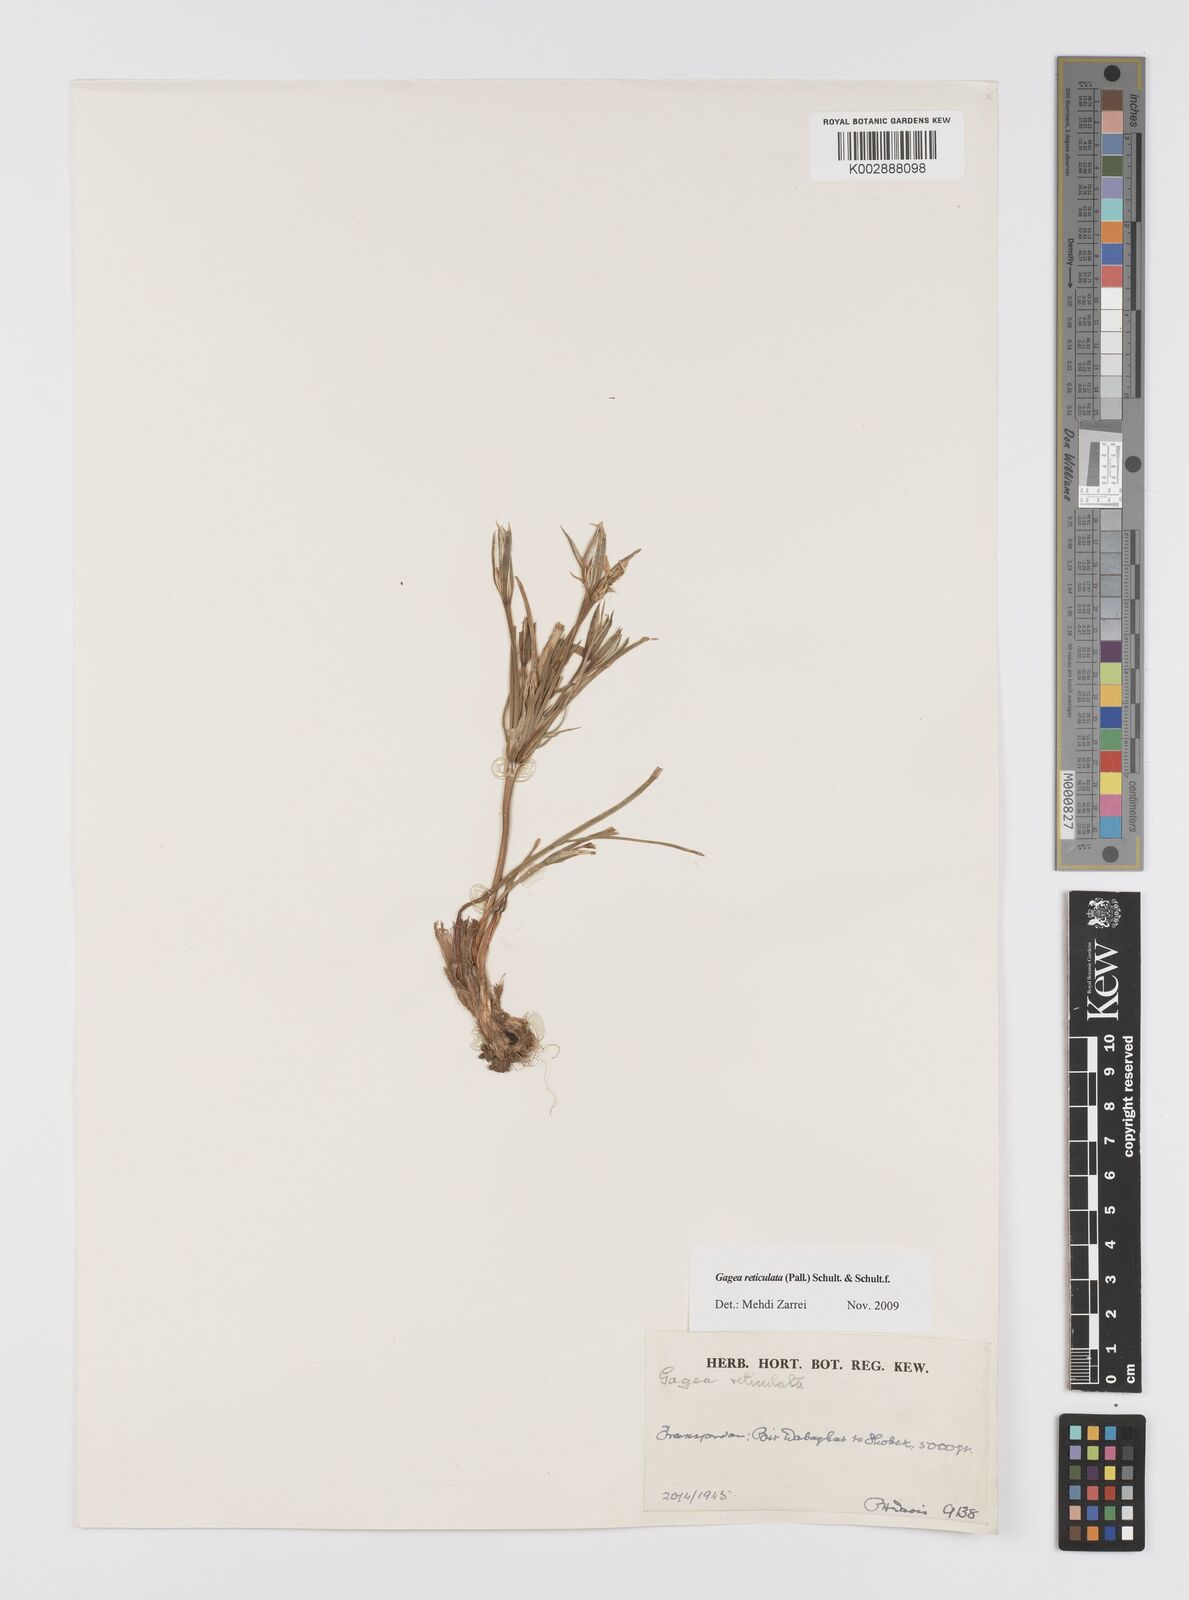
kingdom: Plantae
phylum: Tracheophyta
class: Liliopsida
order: Liliales
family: Liliaceae
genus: Gagea
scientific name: Gagea reticulata
